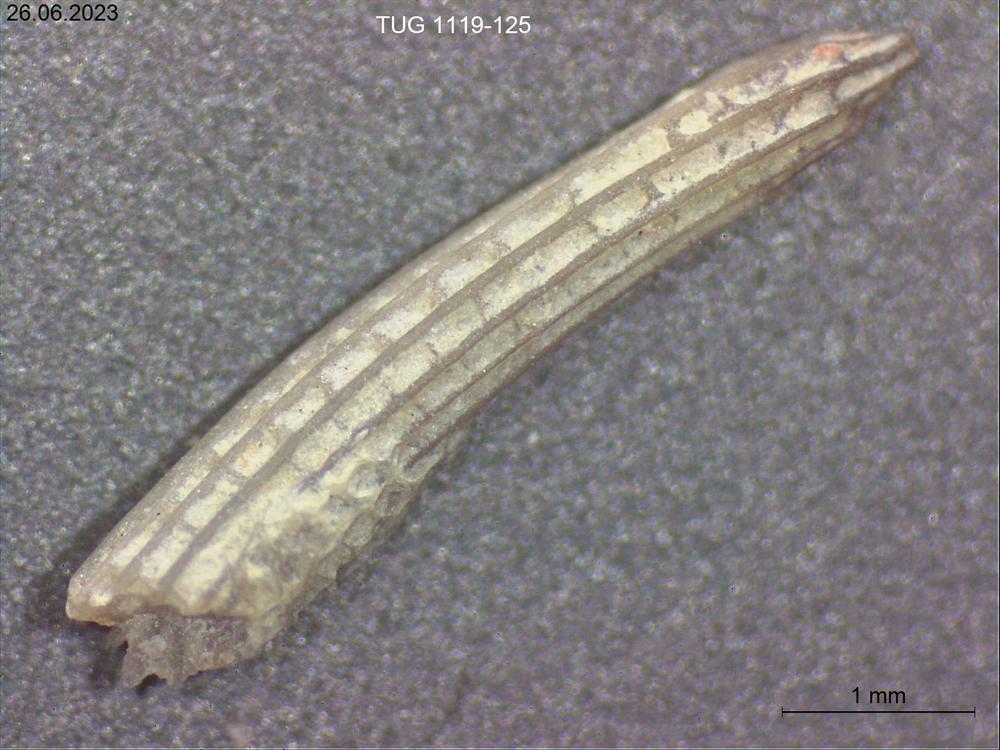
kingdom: Animalia
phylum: Bryozoa
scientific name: Bryozoa
